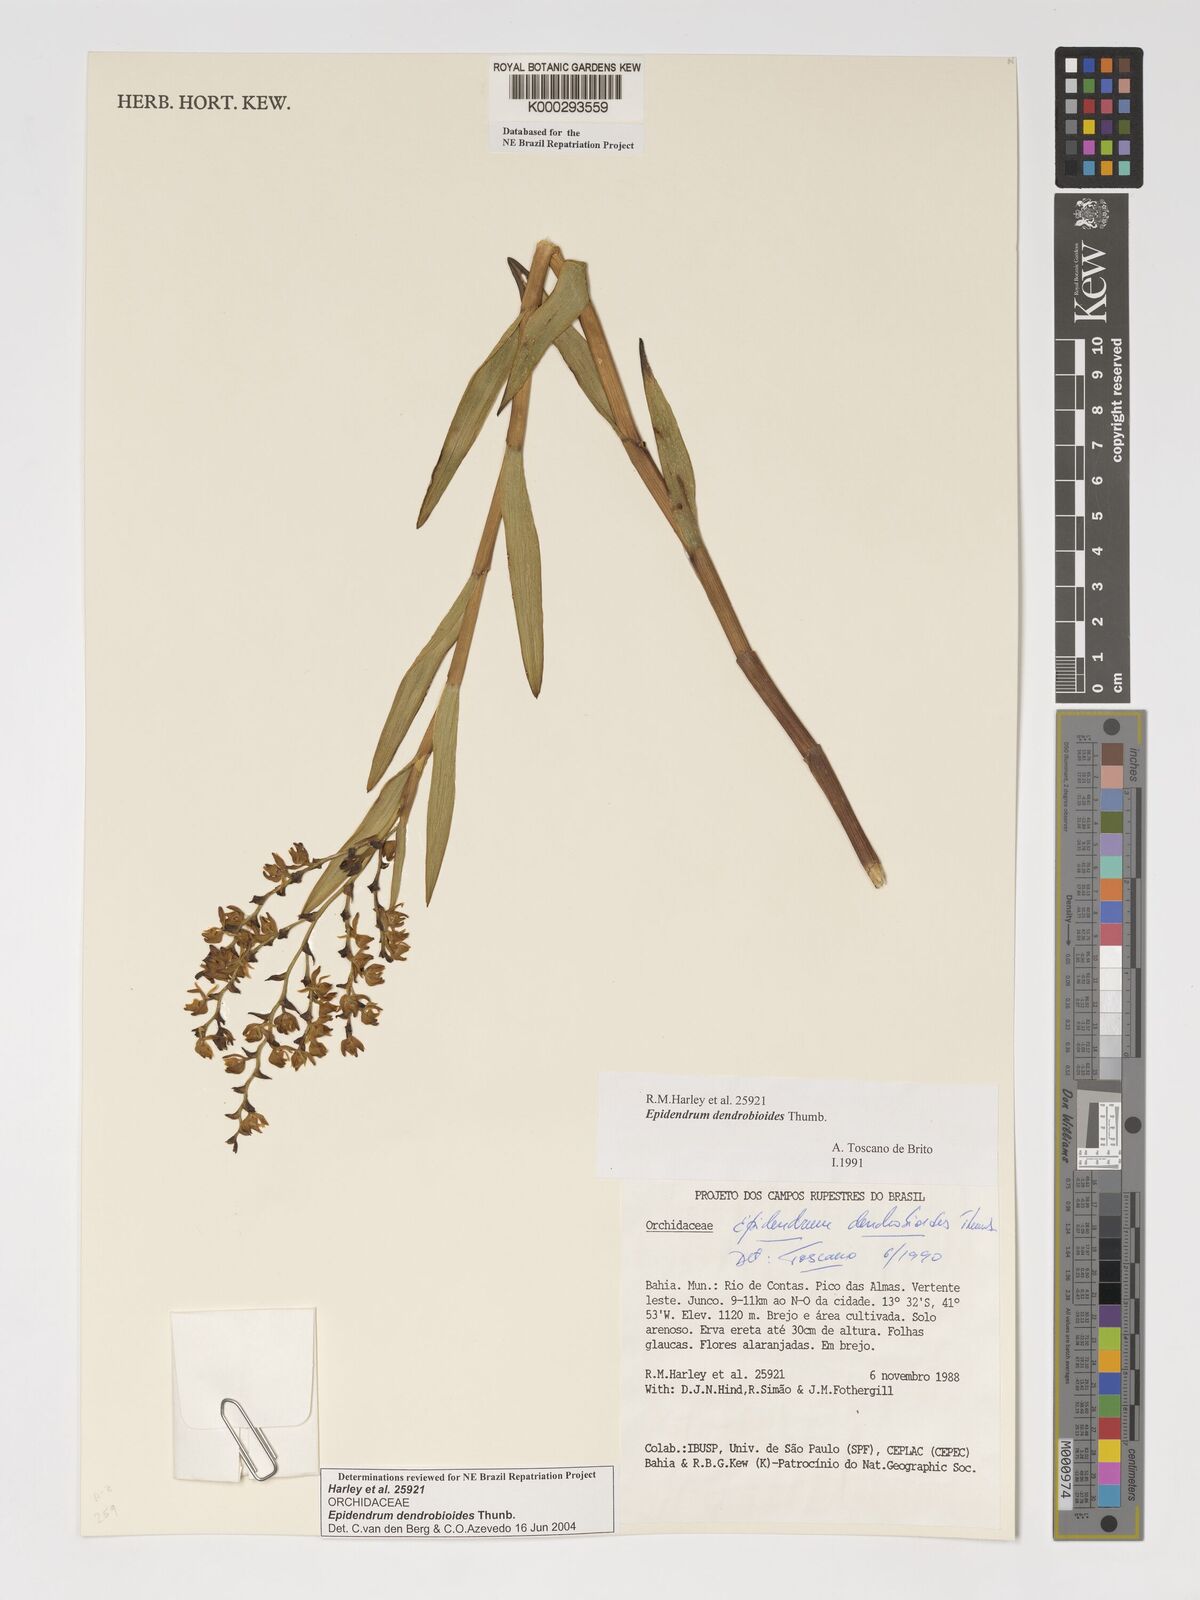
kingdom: Plantae
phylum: Tracheophyta
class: Liliopsida
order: Asparagales
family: Orchidaceae
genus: Epidendrum
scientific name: Epidendrum dendrobioides
